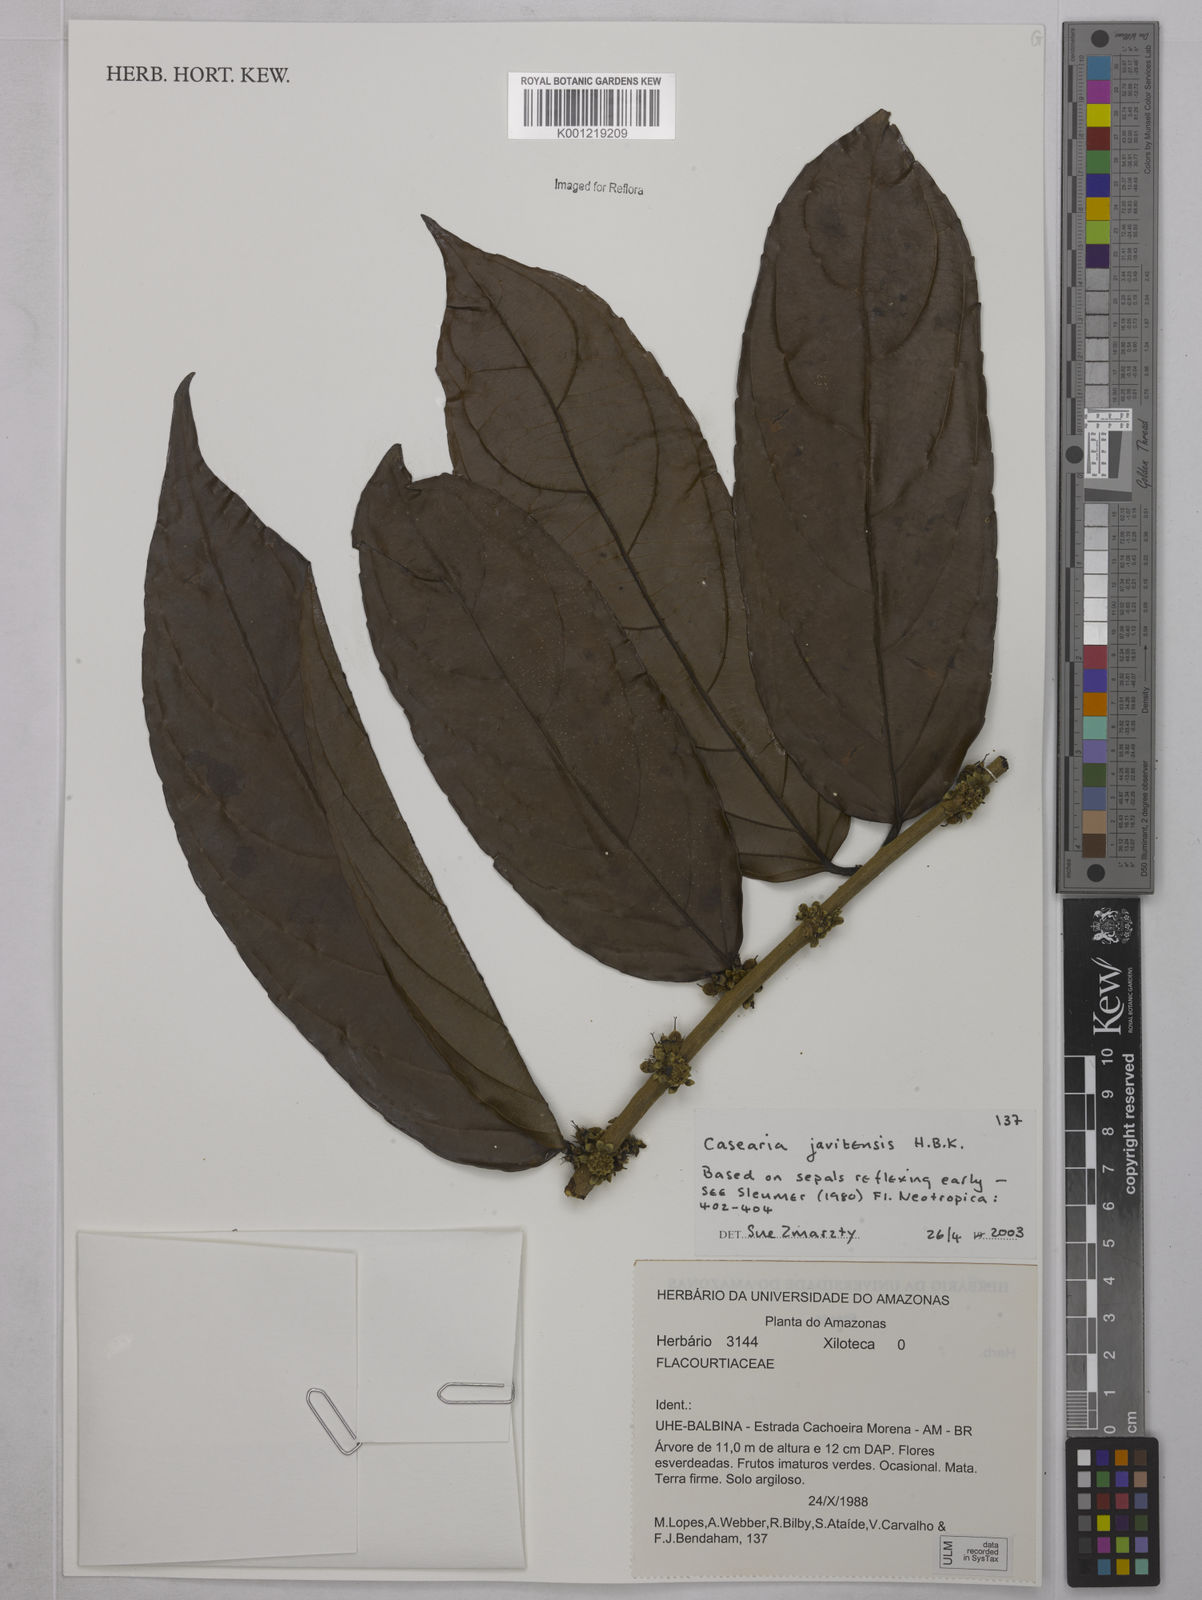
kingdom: Plantae
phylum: Tracheophyta
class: Magnoliopsida
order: Malpighiales
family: Salicaceae
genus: Piparea
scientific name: Piparea multiflora
